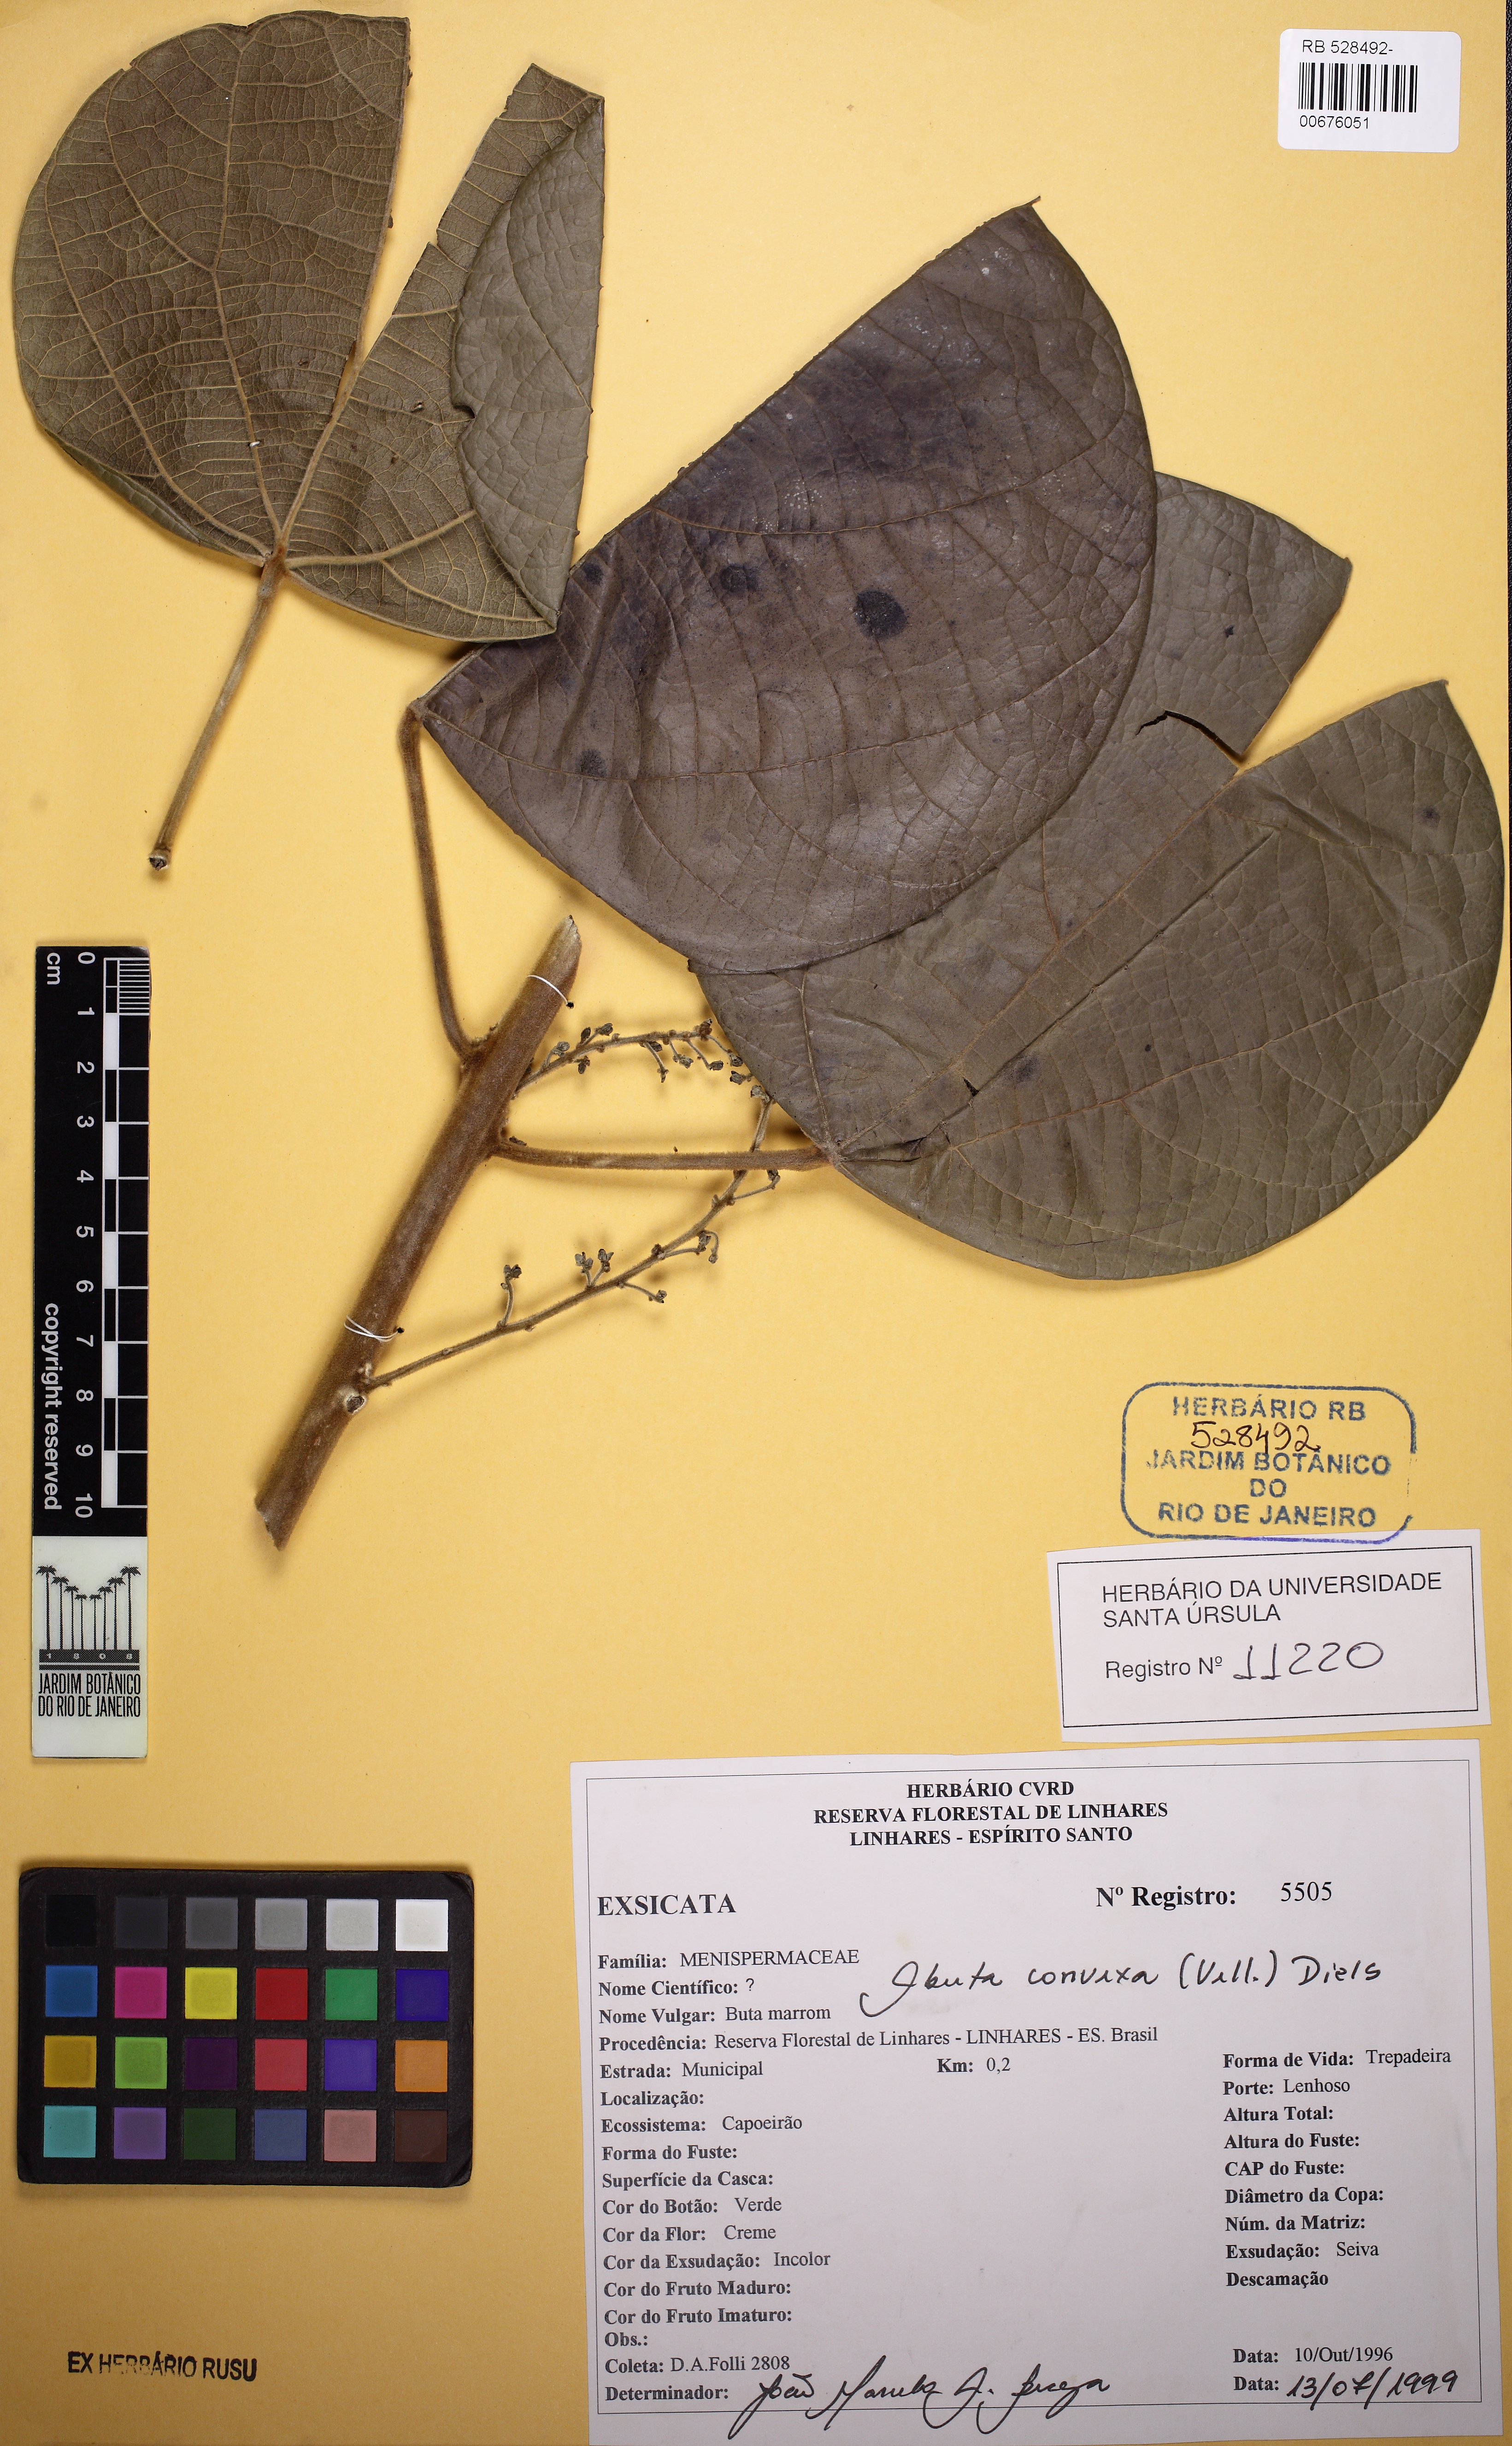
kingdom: Plantae
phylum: Tracheophyta
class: Magnoliopsida
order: Ranunculales
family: Menispermaceae
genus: Abuta
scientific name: Abuta rufescens
